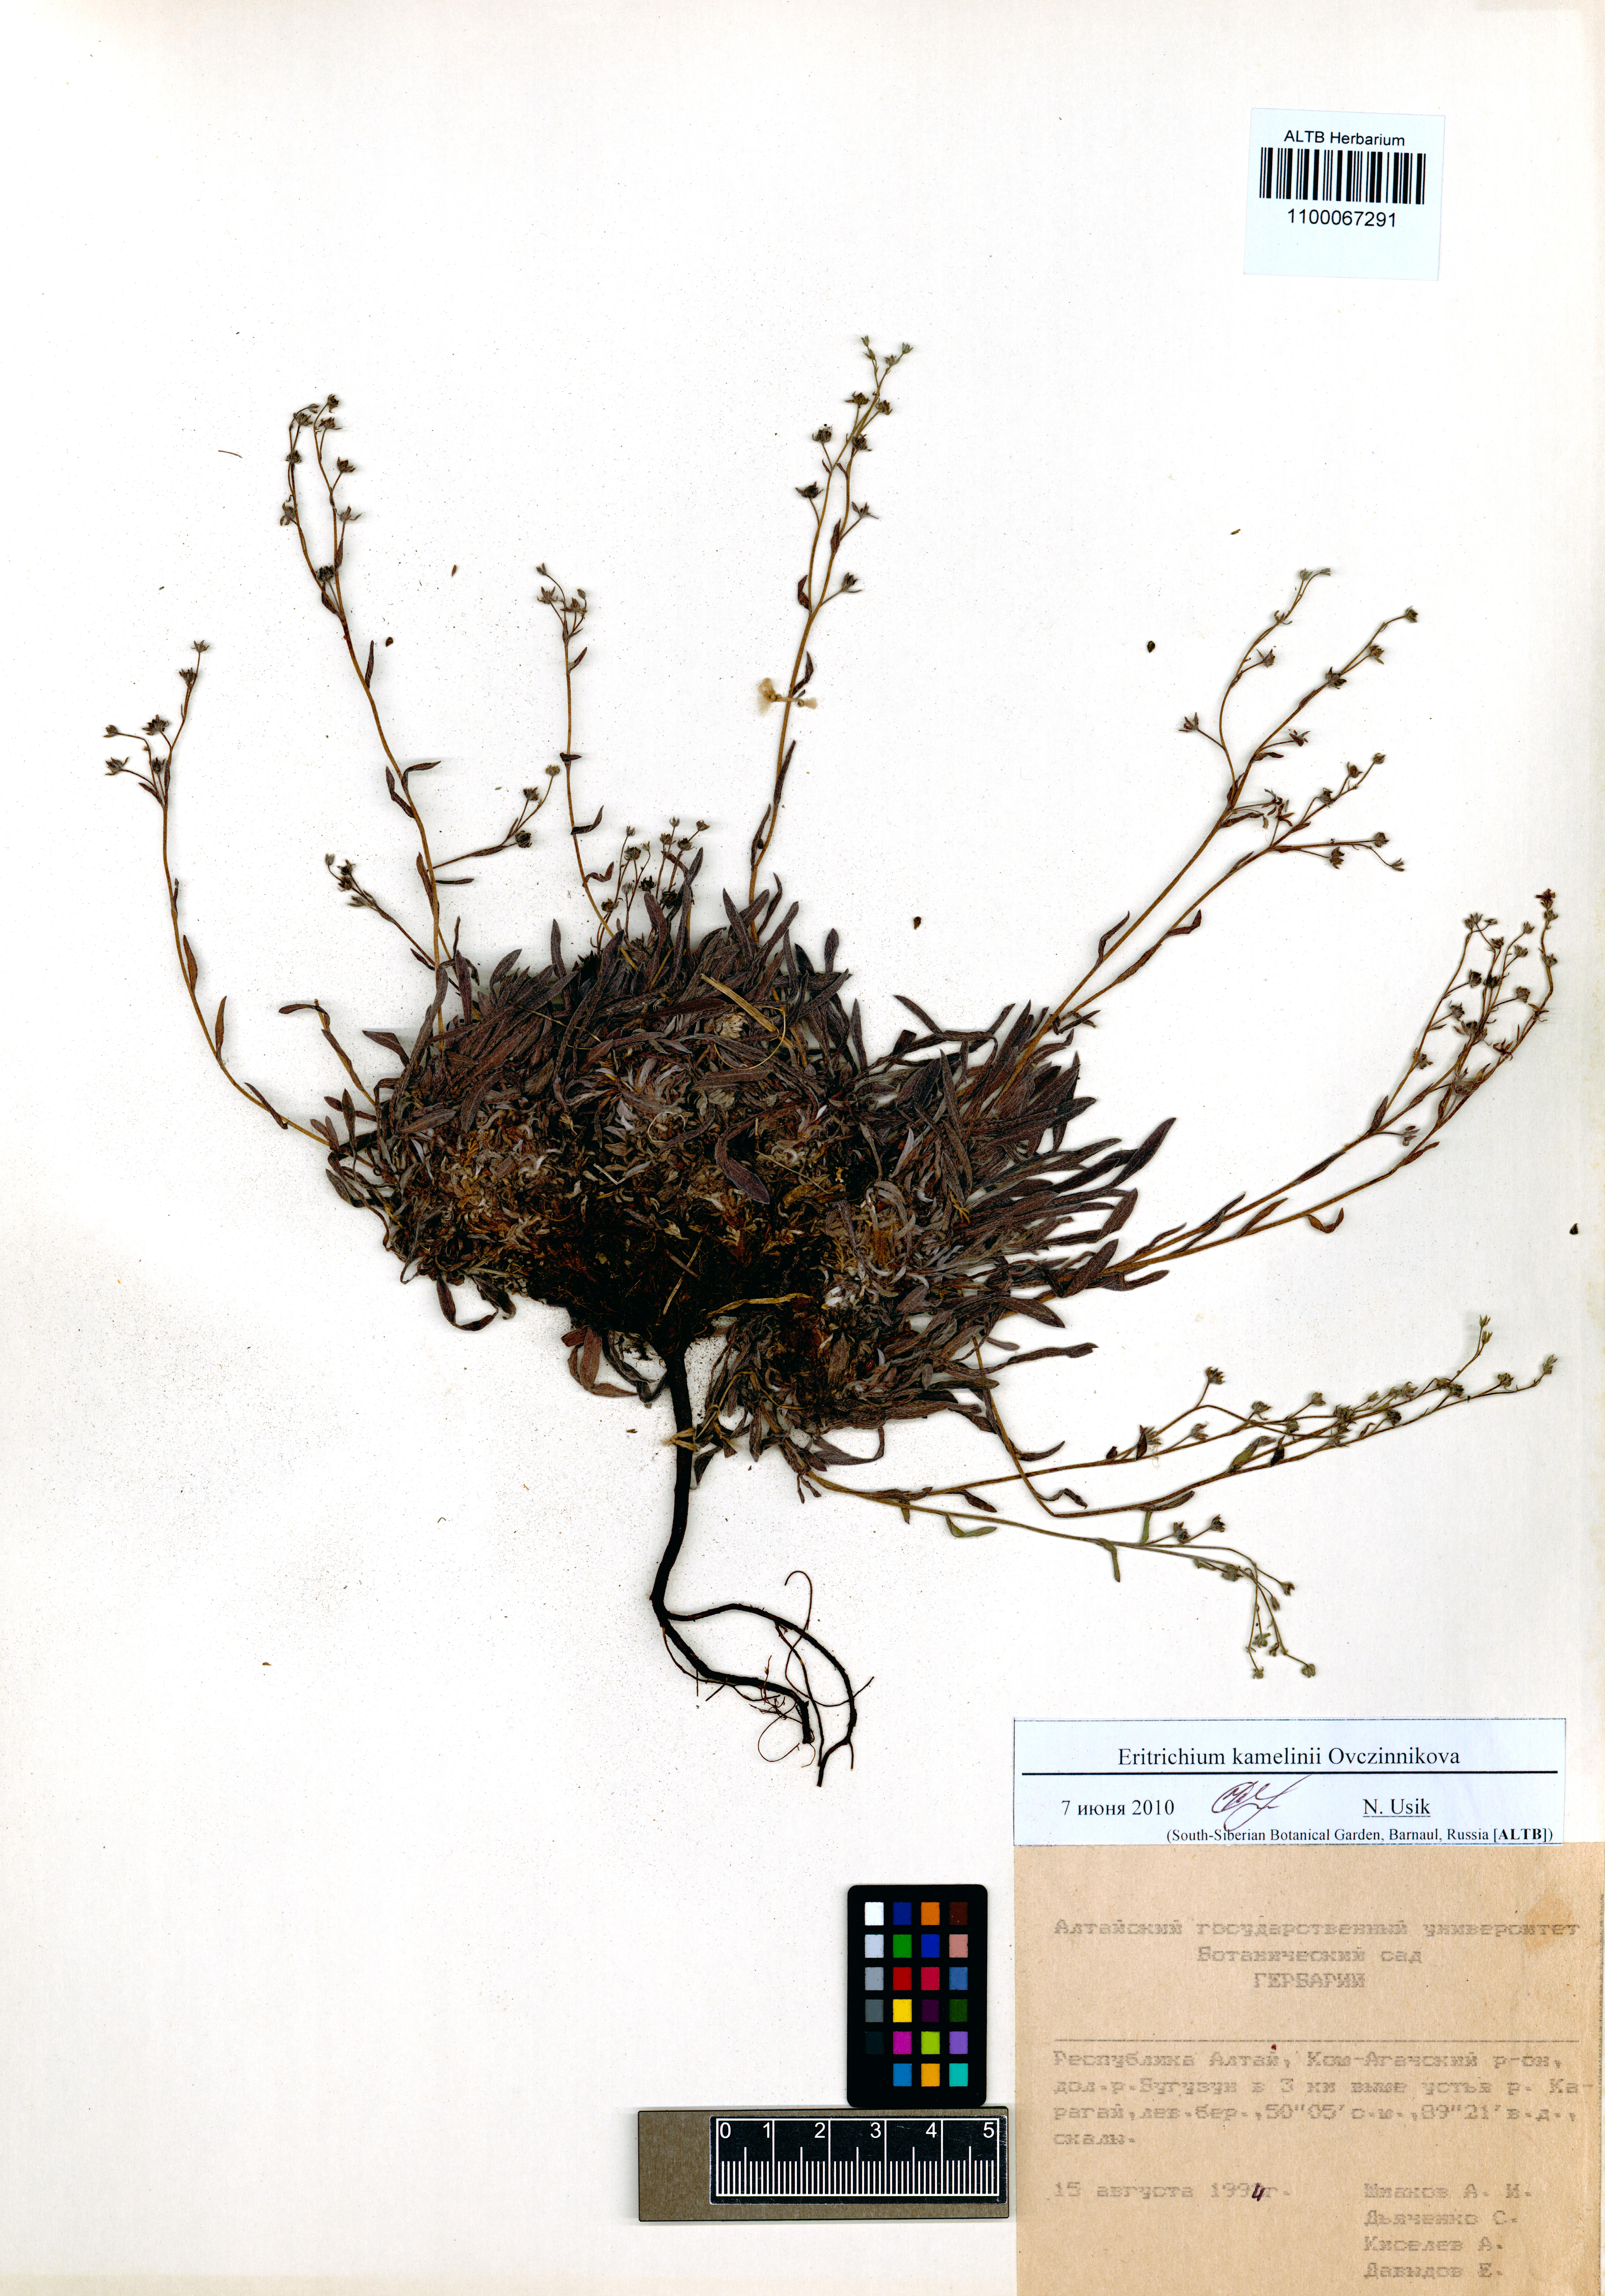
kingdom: Plantae
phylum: Tracheophyta
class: Magnoliopsida
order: Boraginales
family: Boraginaceae
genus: Eritrichium
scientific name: Eritrichium kamelinii
